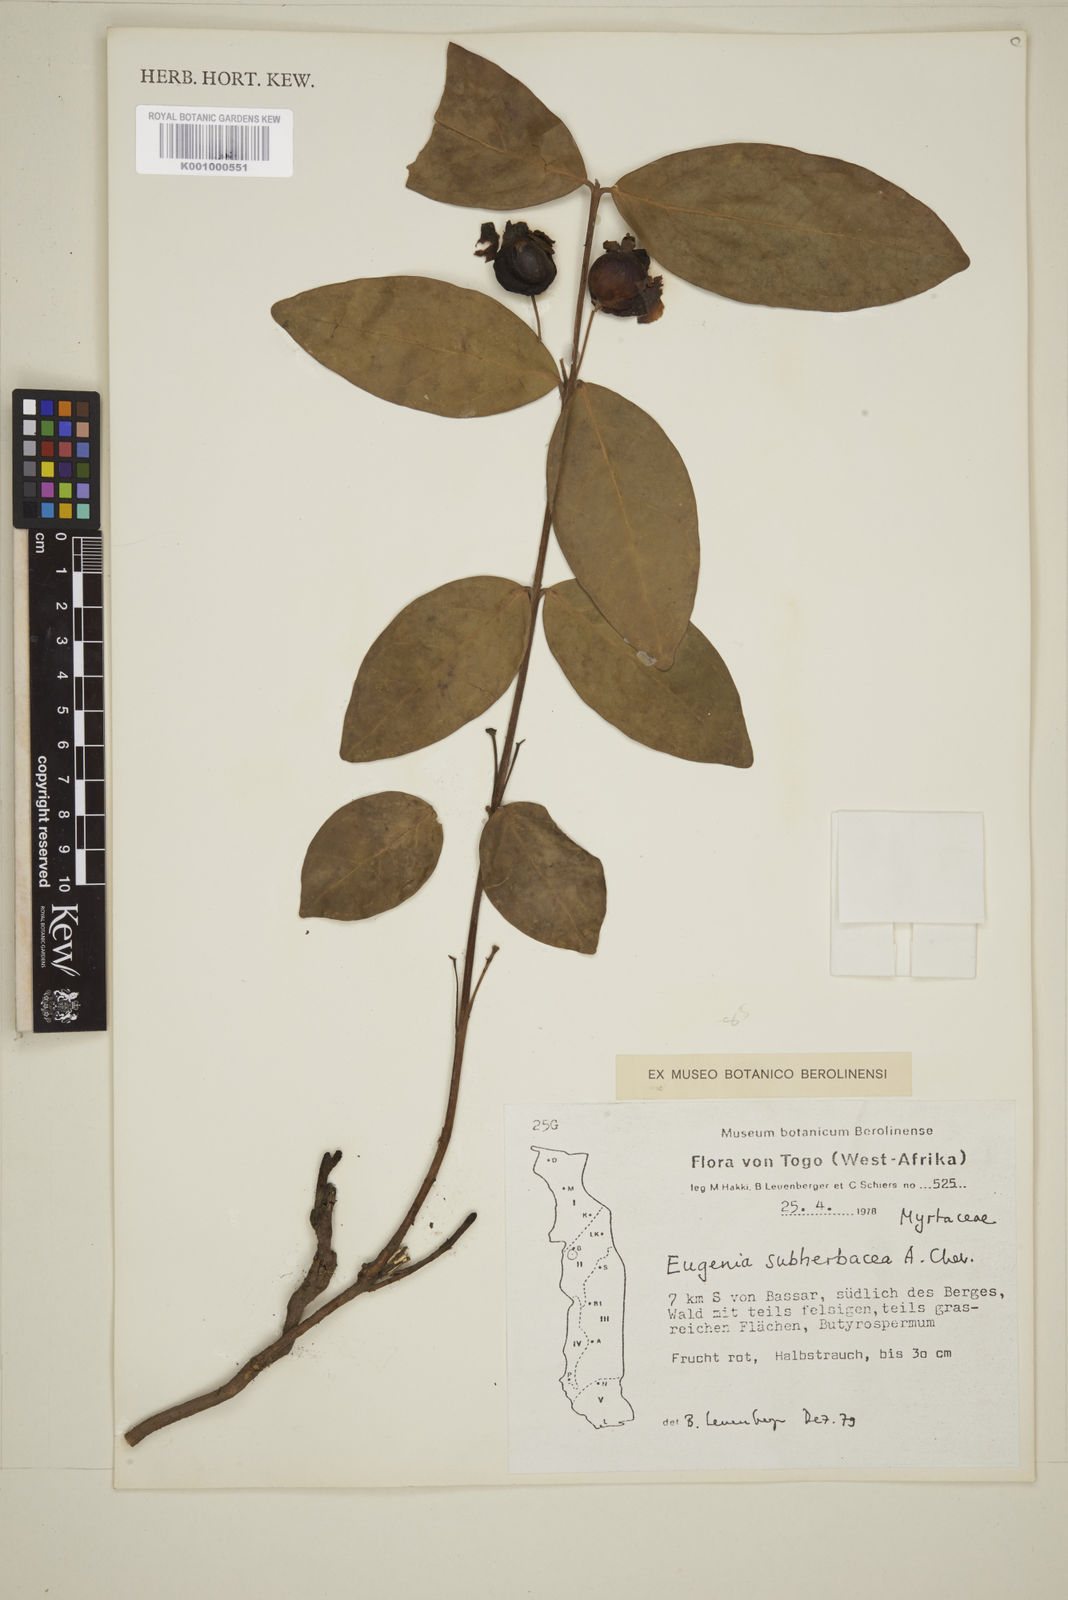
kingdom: Plantae
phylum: Tracheophyta
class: Magnoliopsida
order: Myrtales
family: Myrtaceae
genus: Eugenia
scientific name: Eugenia subherbacea
